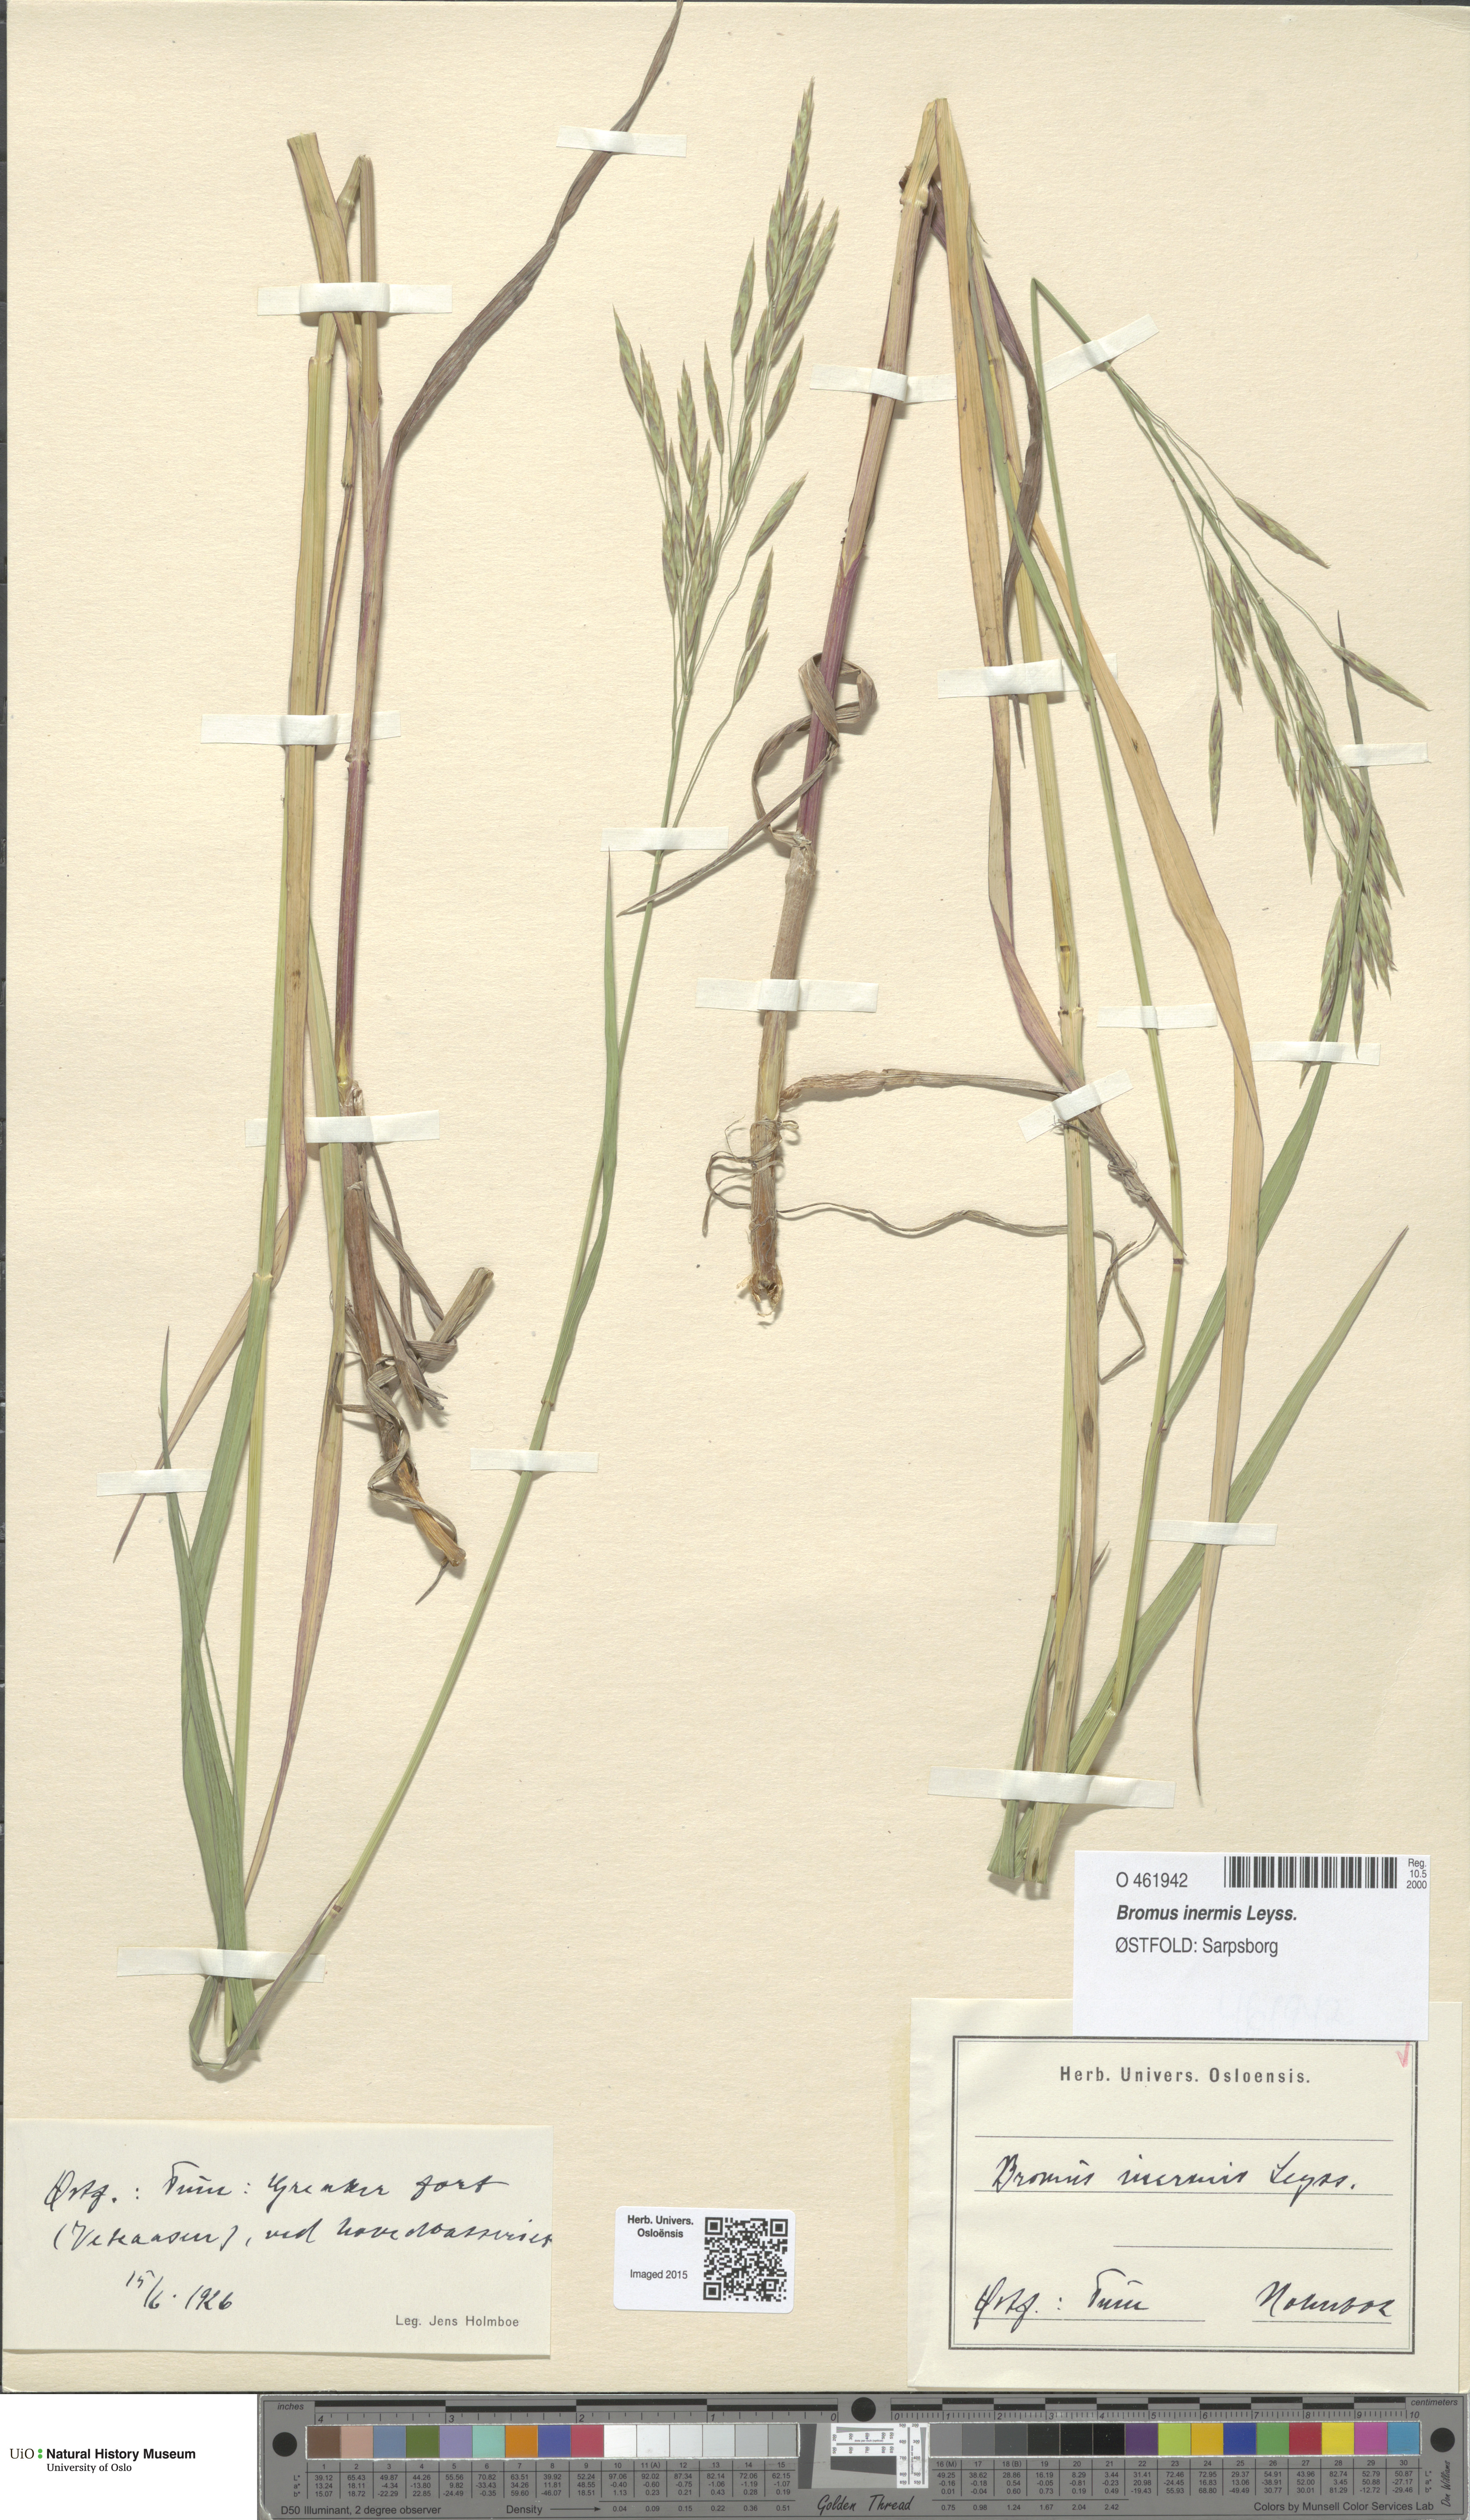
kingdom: Plantae
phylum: Tracheophyta
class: Liliopsida
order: Poales
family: Poaceae
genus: Bromus
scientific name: Bromus inermis
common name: Smooth brome
